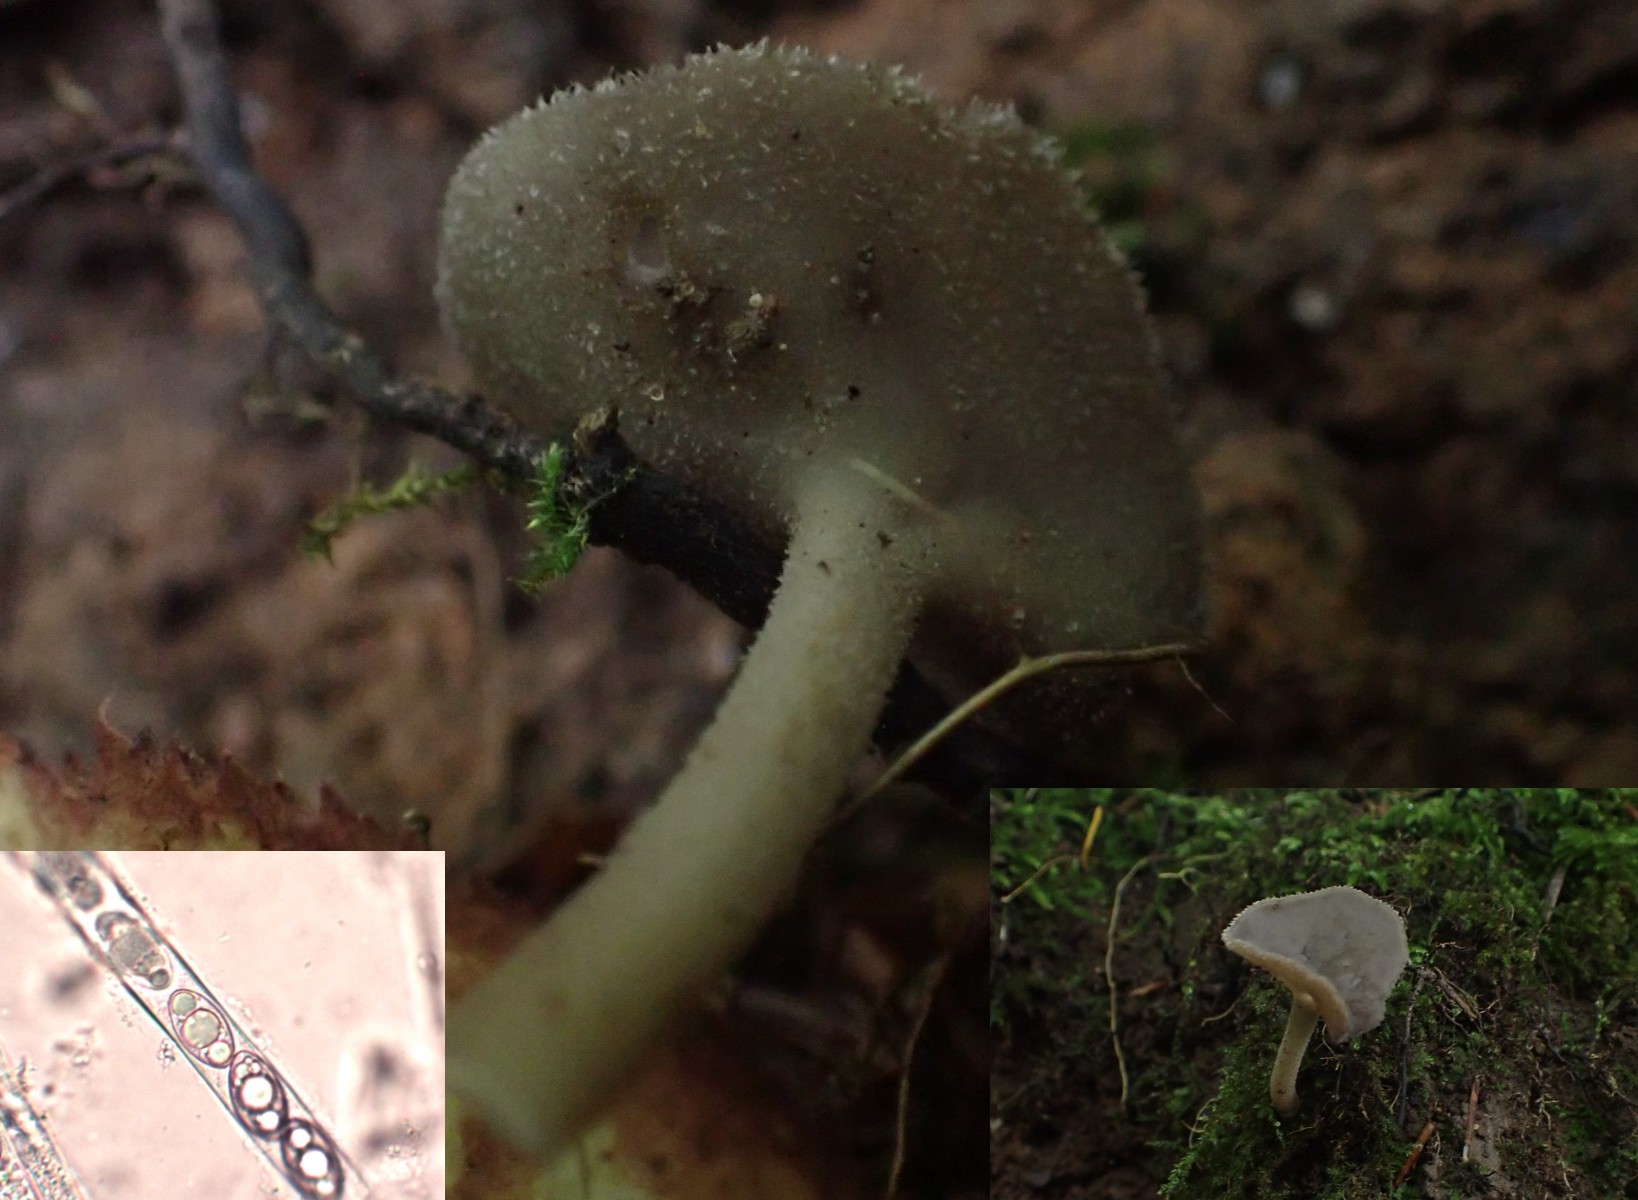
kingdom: Fungi
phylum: Ascomycota
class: Pezizomycetes
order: Pezizales
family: Helvellaceae
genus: Helvella
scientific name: Helvella macropus
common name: højstokket foldhat
